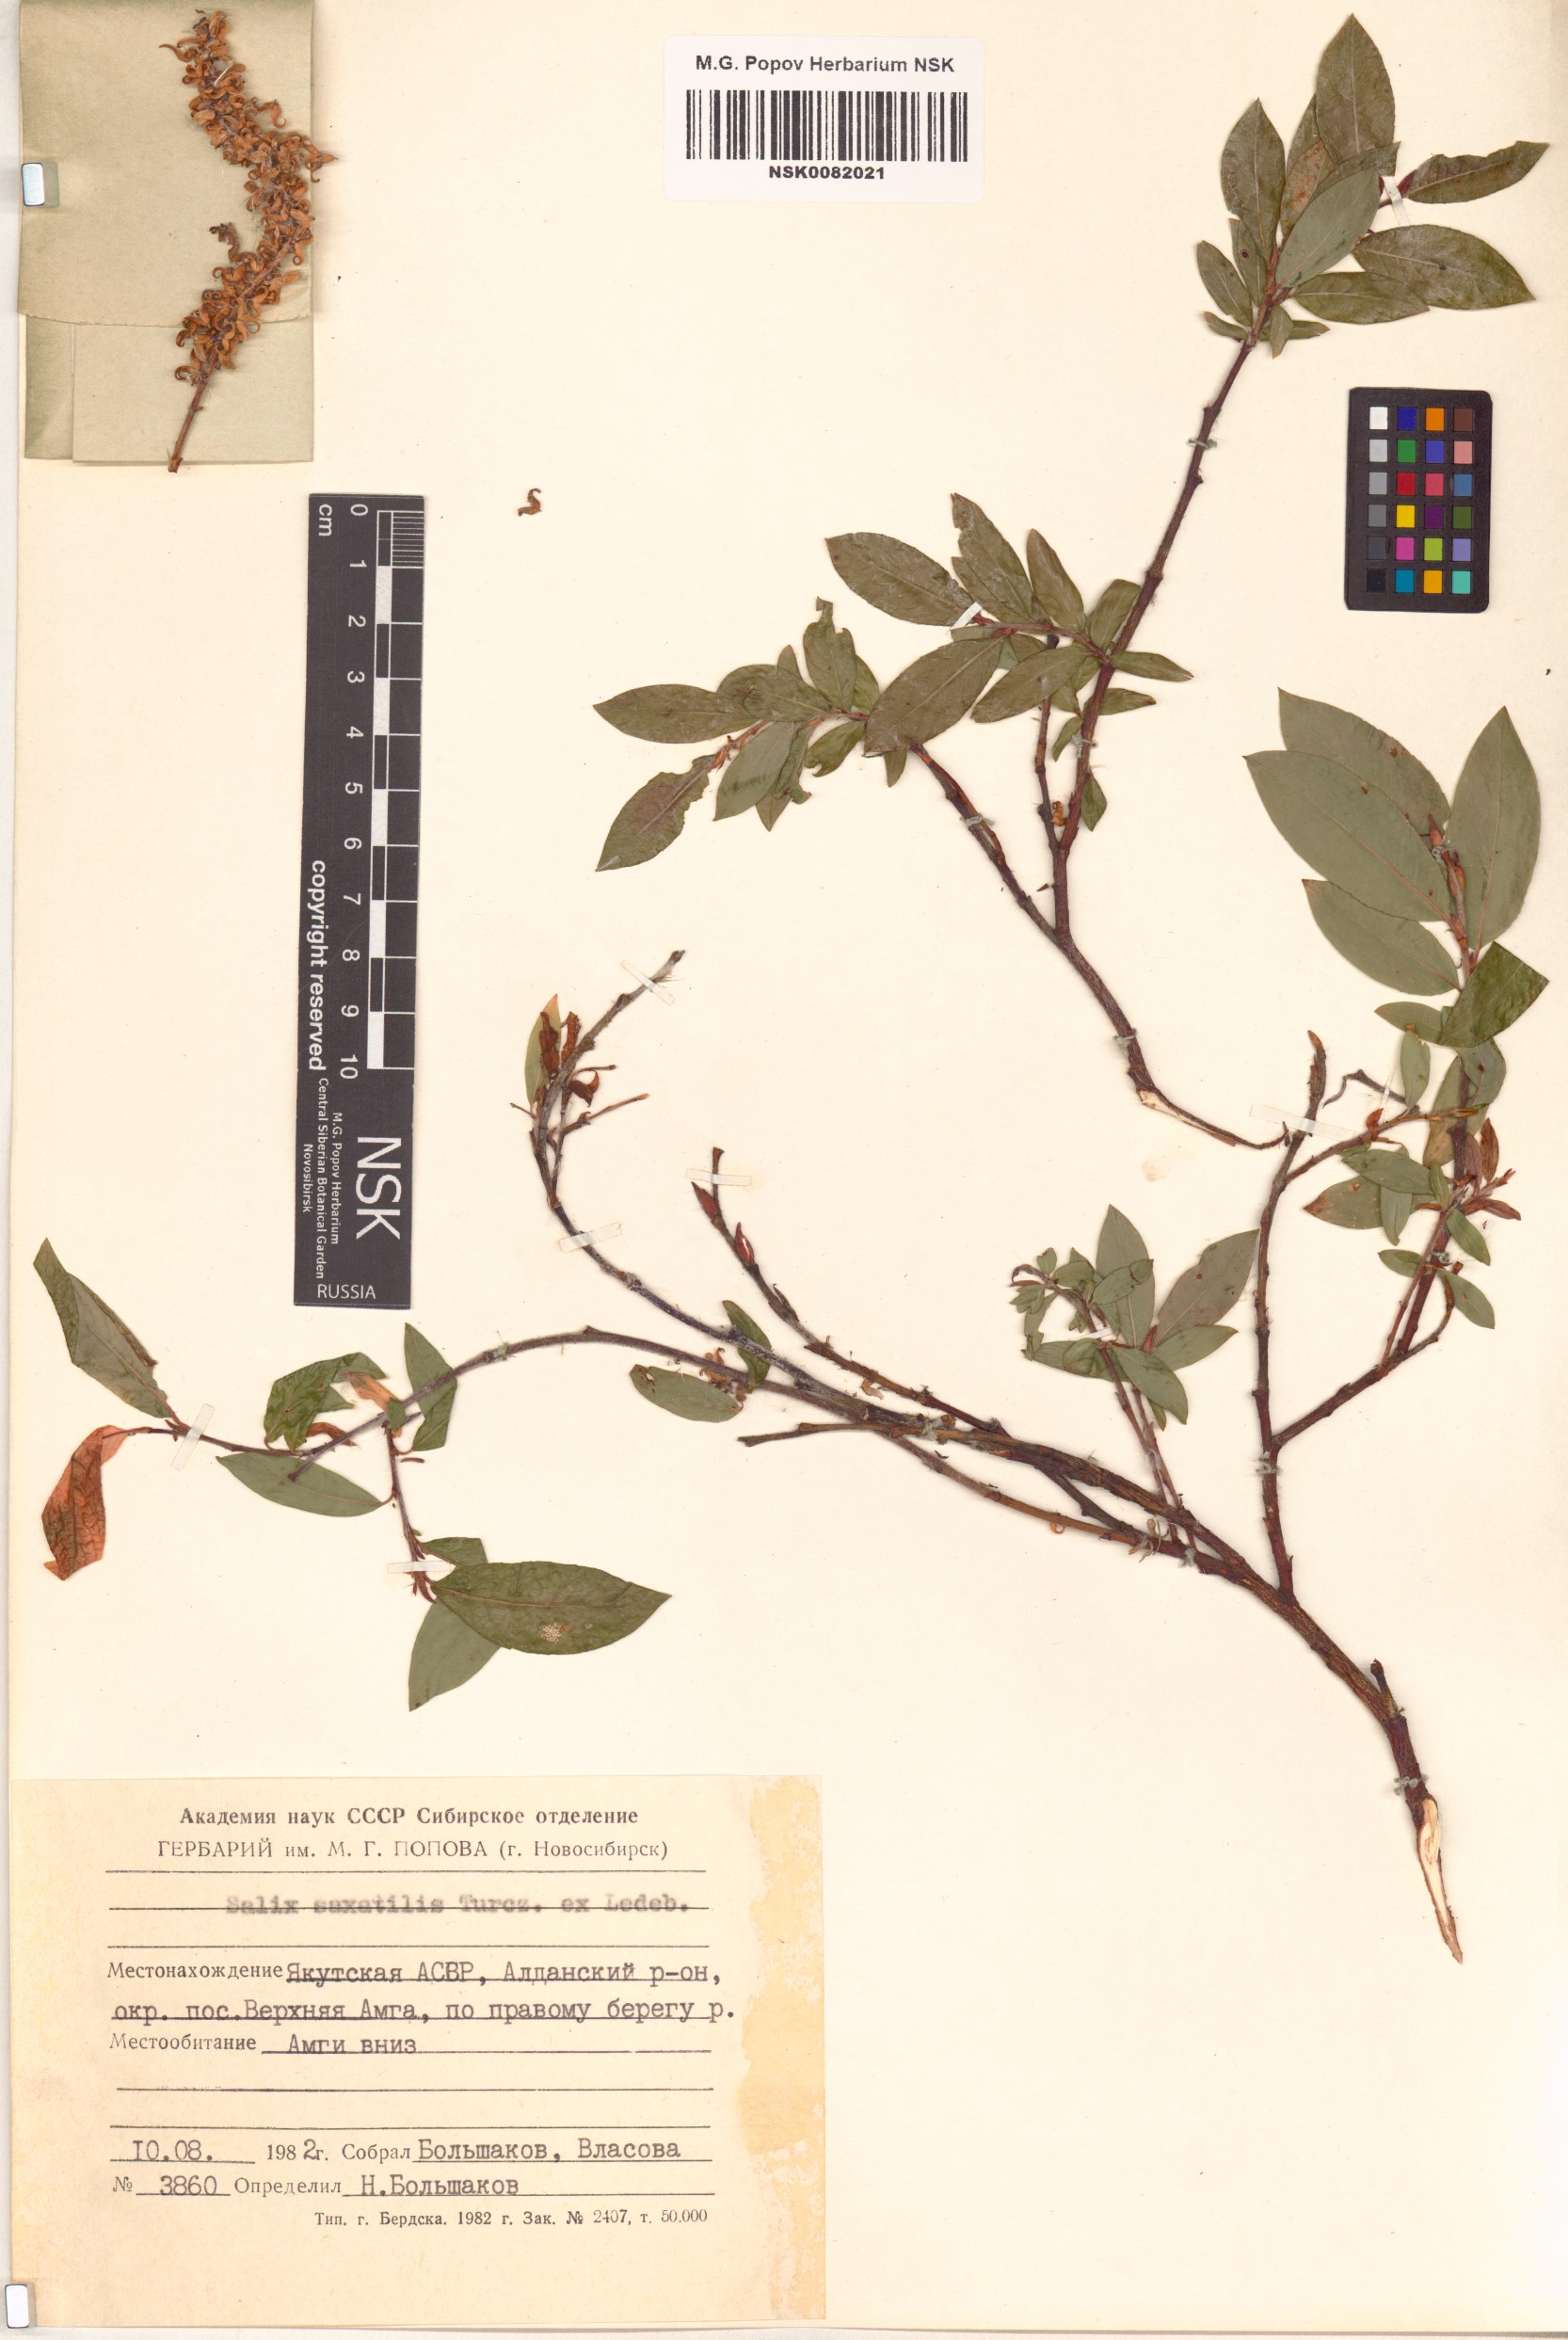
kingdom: Plantae
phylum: Tracheophyta
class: Magnoliopsida
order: Malpighiales
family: Salicaceae
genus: Salix
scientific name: Salix saxatilis
